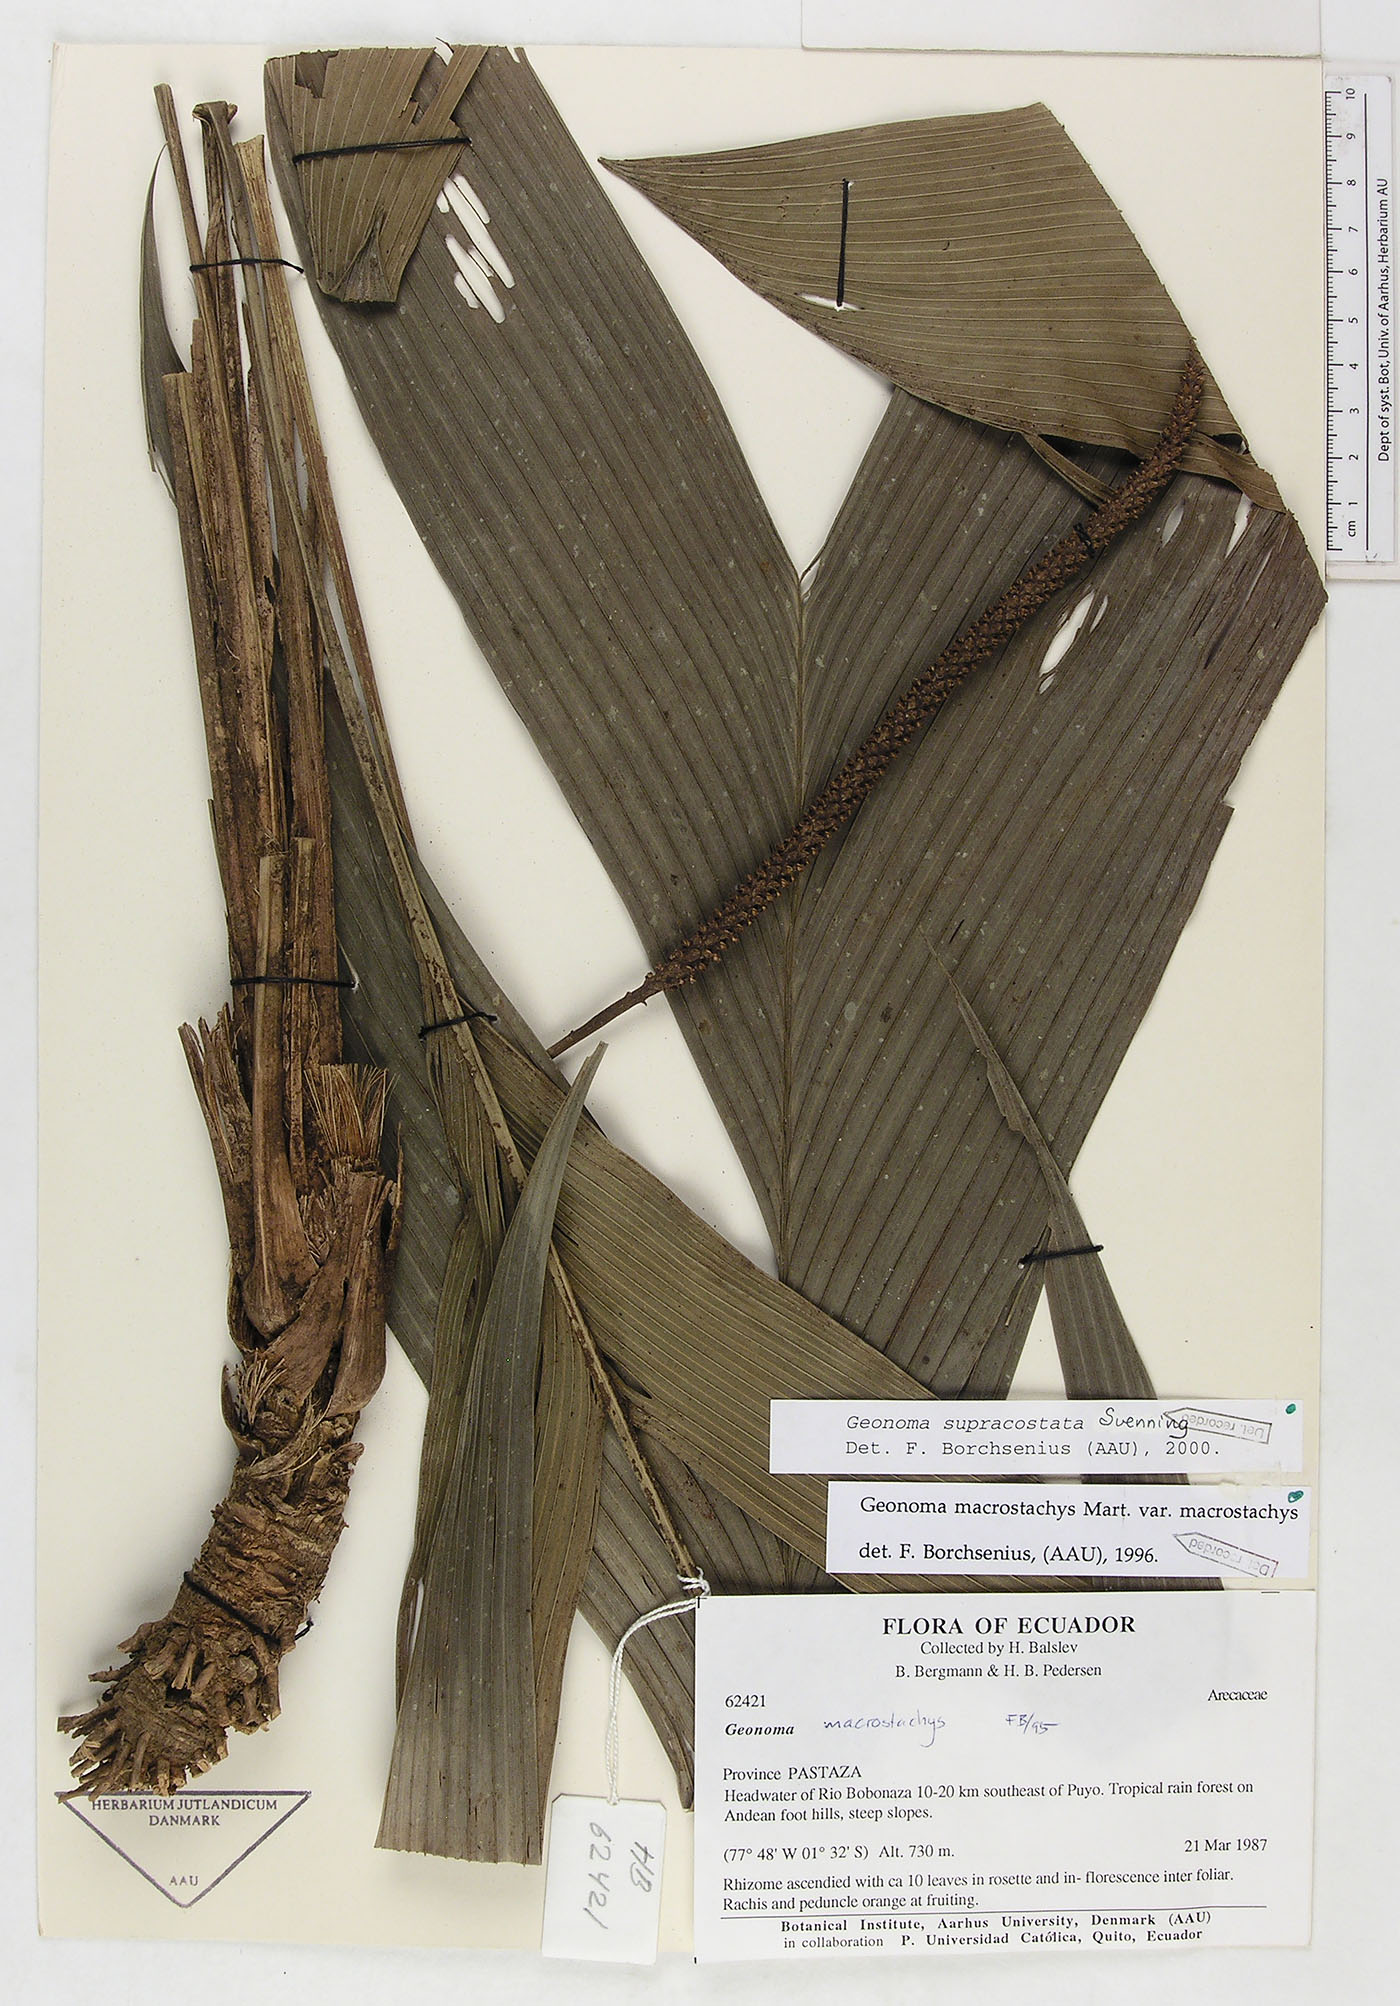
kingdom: Plantae
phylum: Tracheophyta
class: Liliopsida
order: Arecales
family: Arecaceae
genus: Geonoma
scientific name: Geonoma macrostachys
